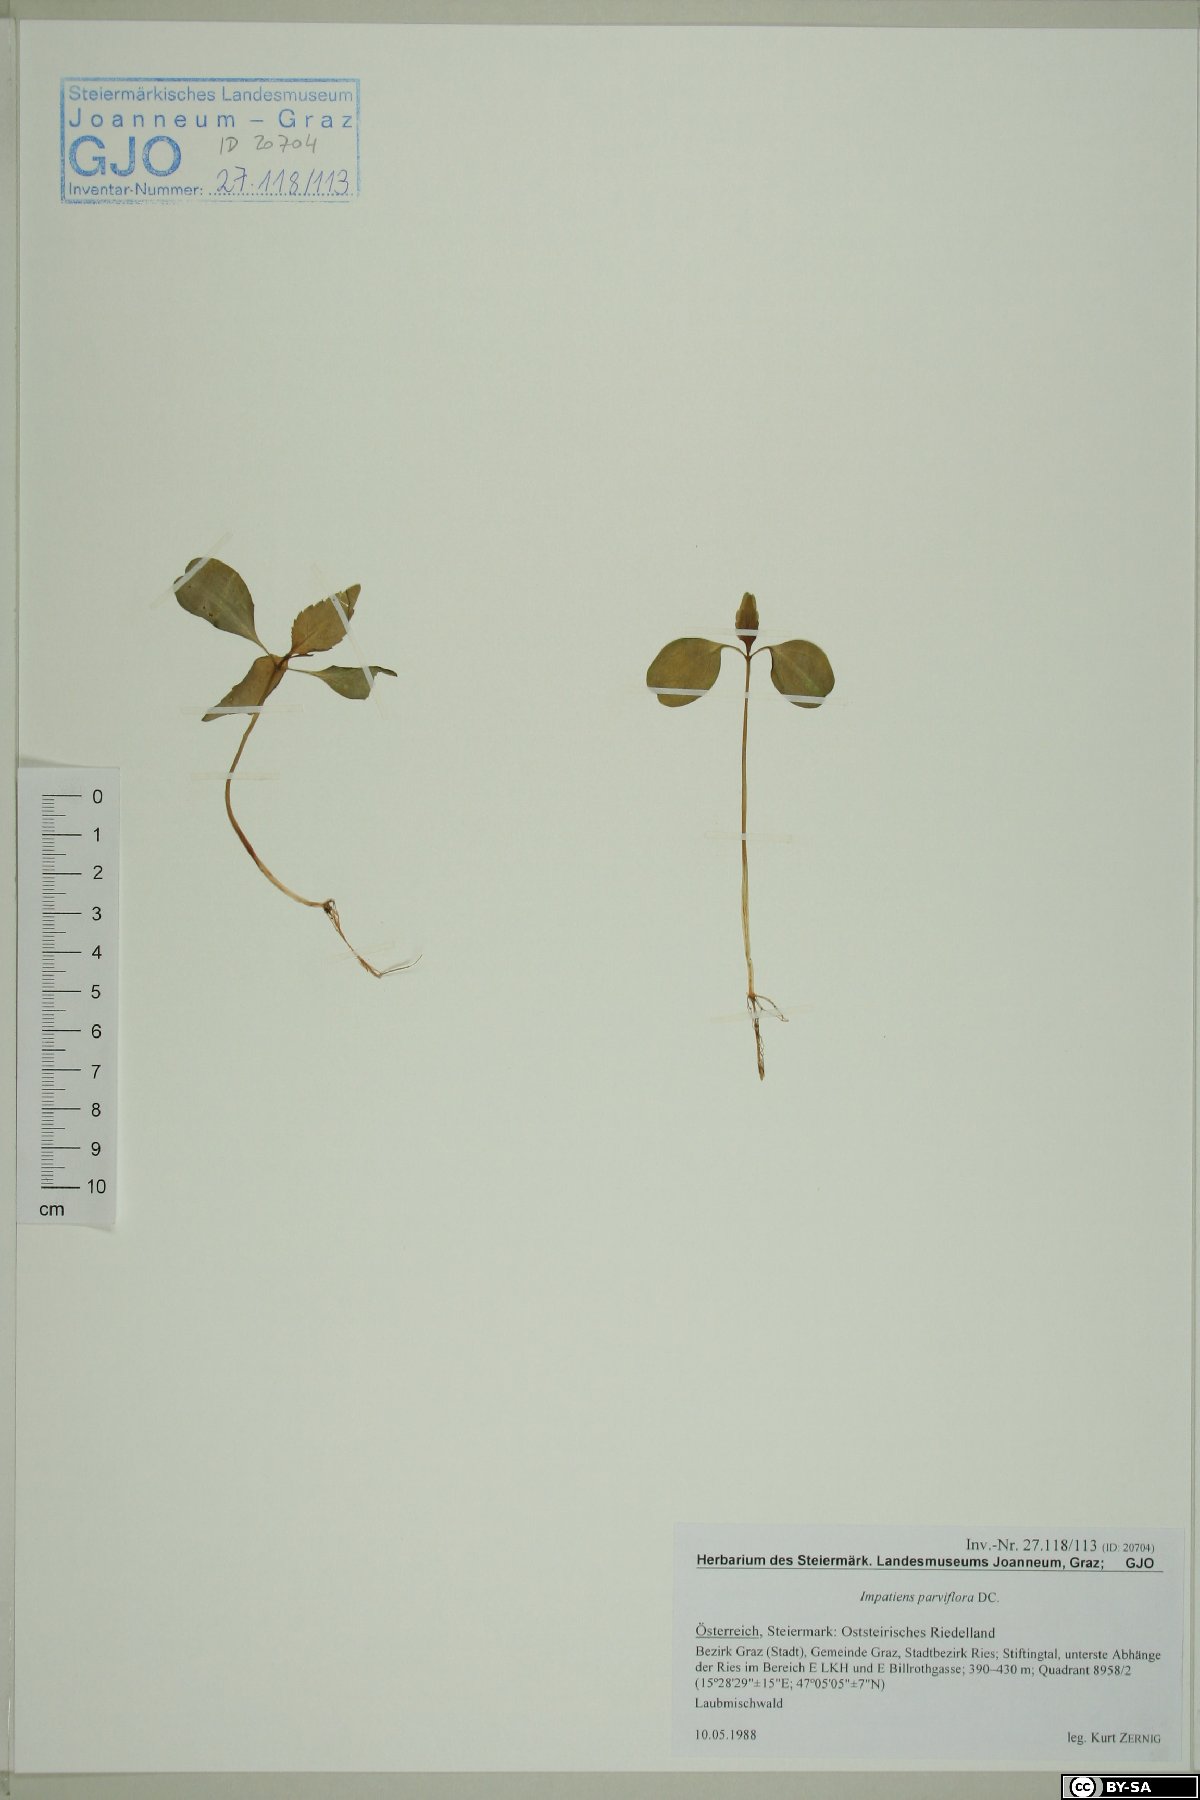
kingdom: Plantae
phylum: Tracheophyta
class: Magnoliopsida
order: Ericales
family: Balsaminaceae
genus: Impatiens
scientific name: Impatiens parviflora
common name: Small balsam
